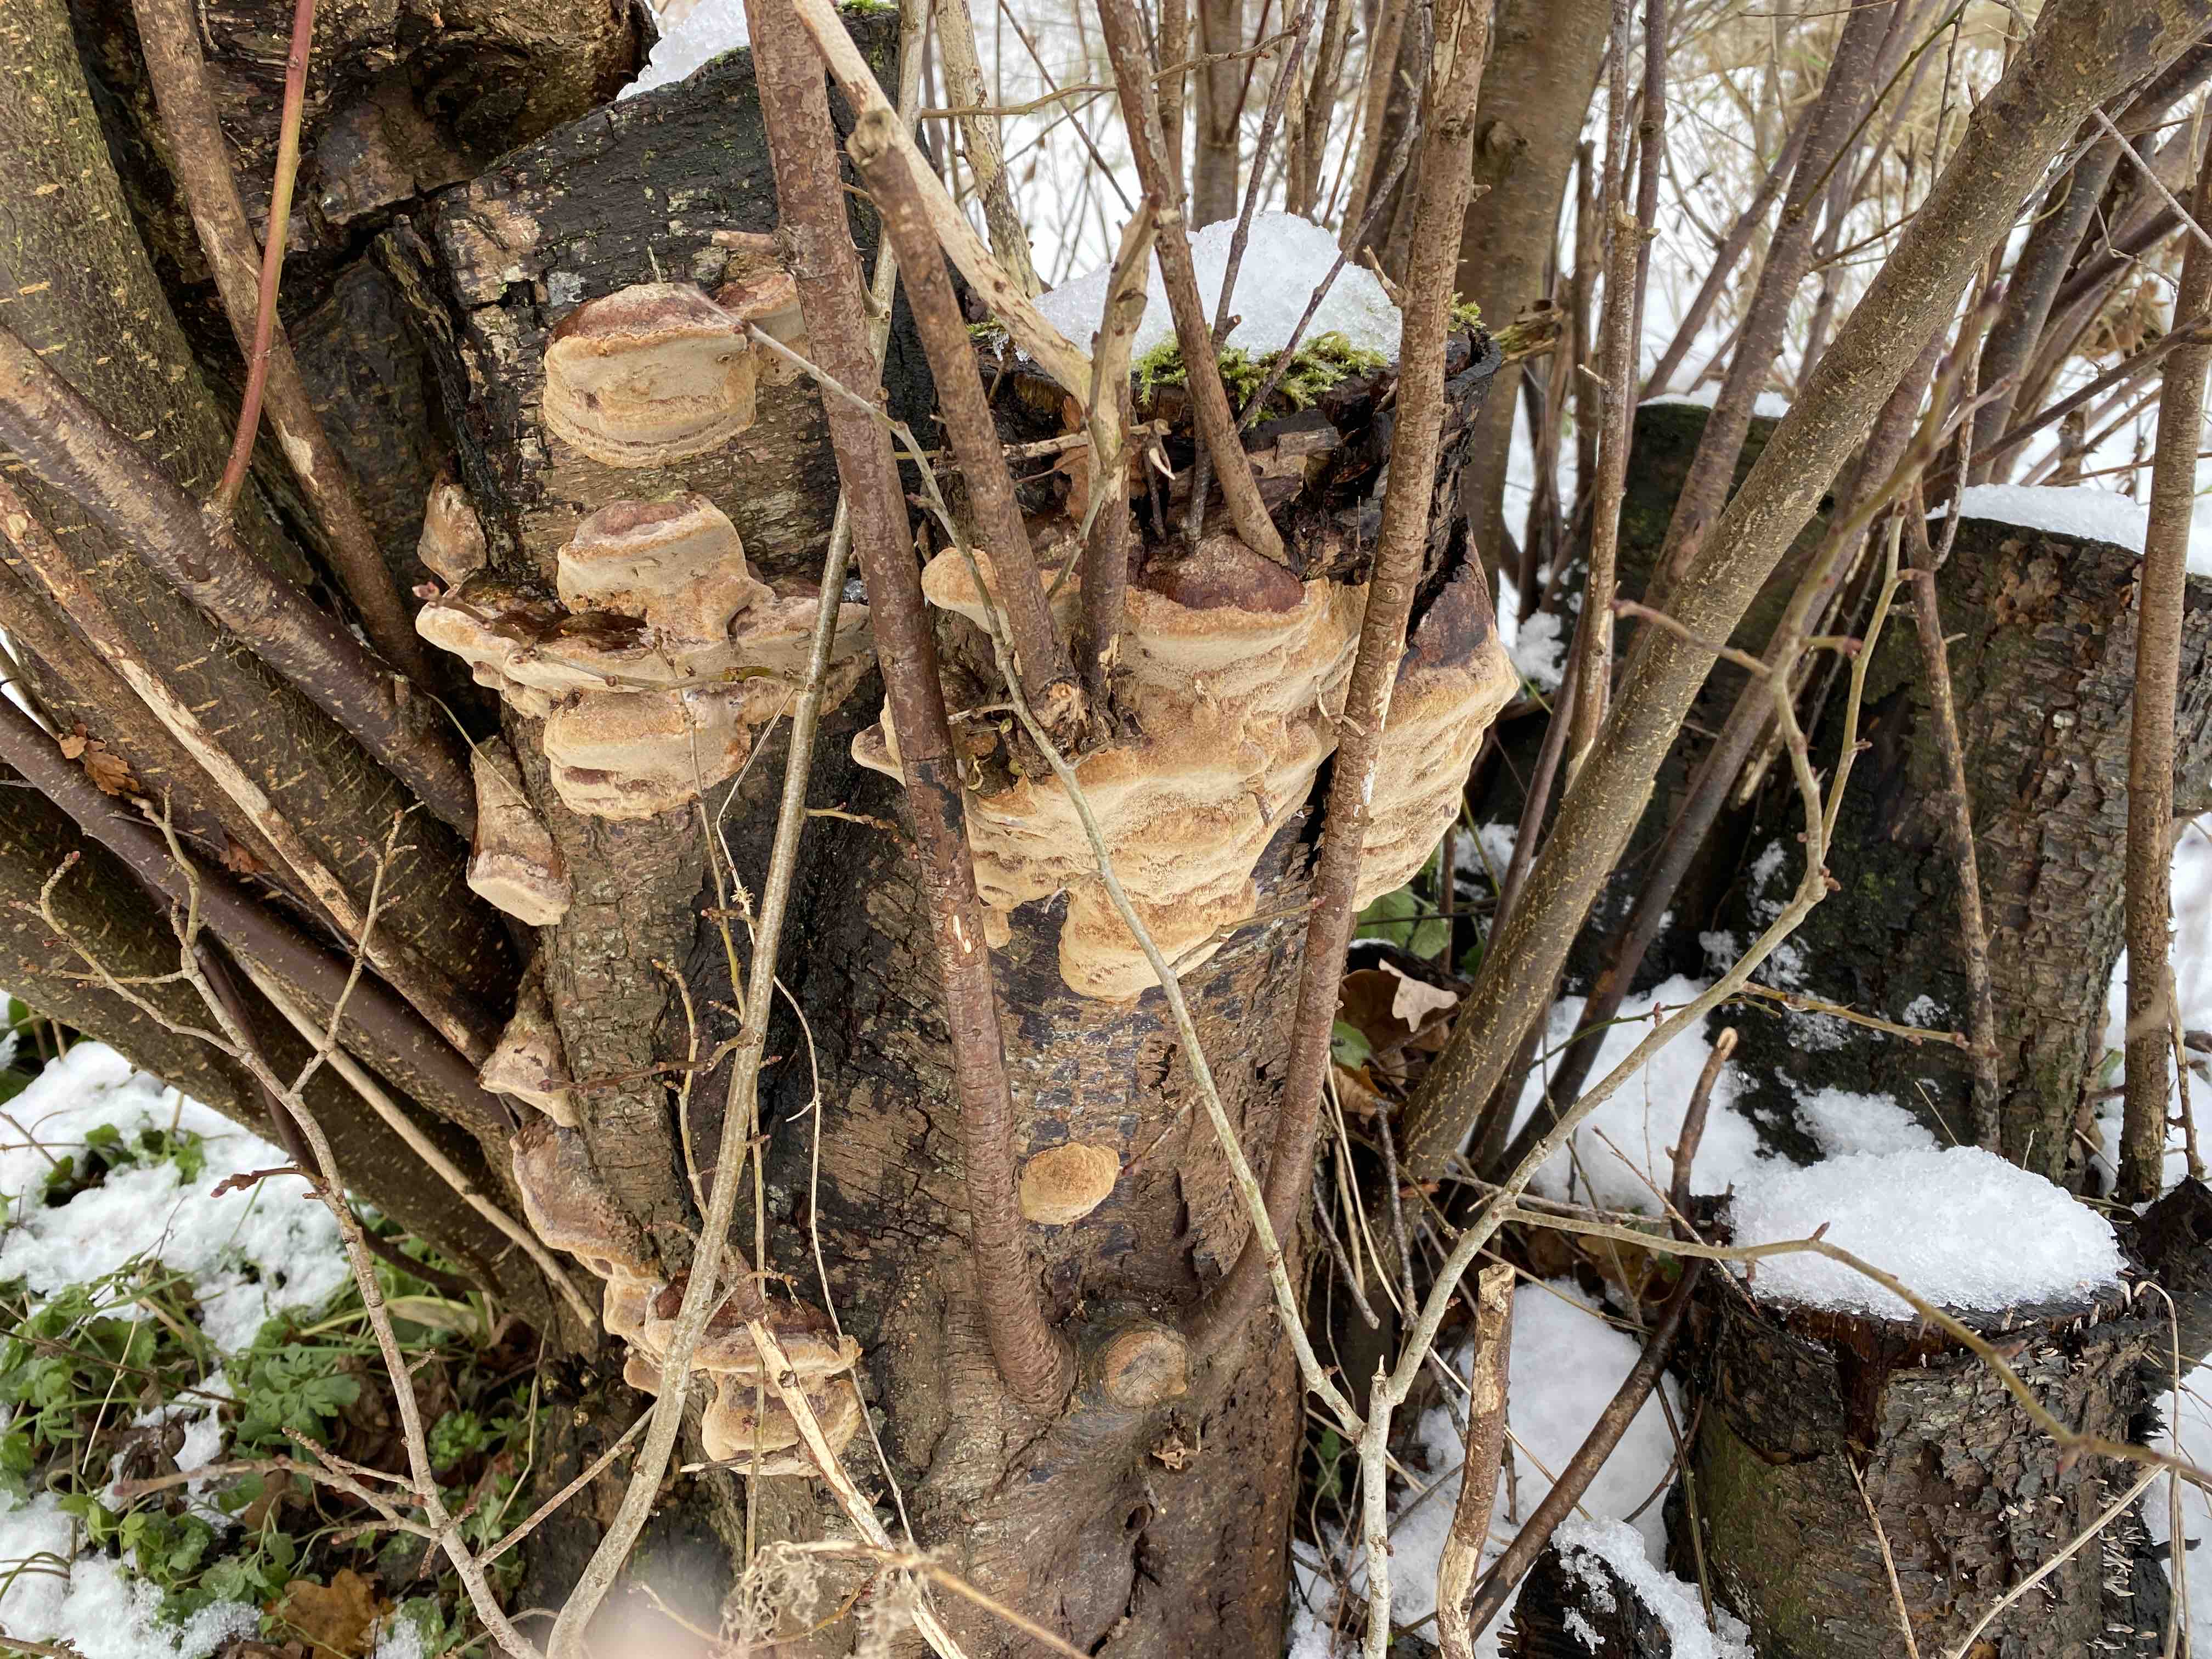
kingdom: Fungi
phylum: Basidiomycota
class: Agaricomycetes
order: Hymenochaetales
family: Hymenochaetaceae
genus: Phellinus
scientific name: Phellinus pomaceus
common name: blomme-ildporesvamp
